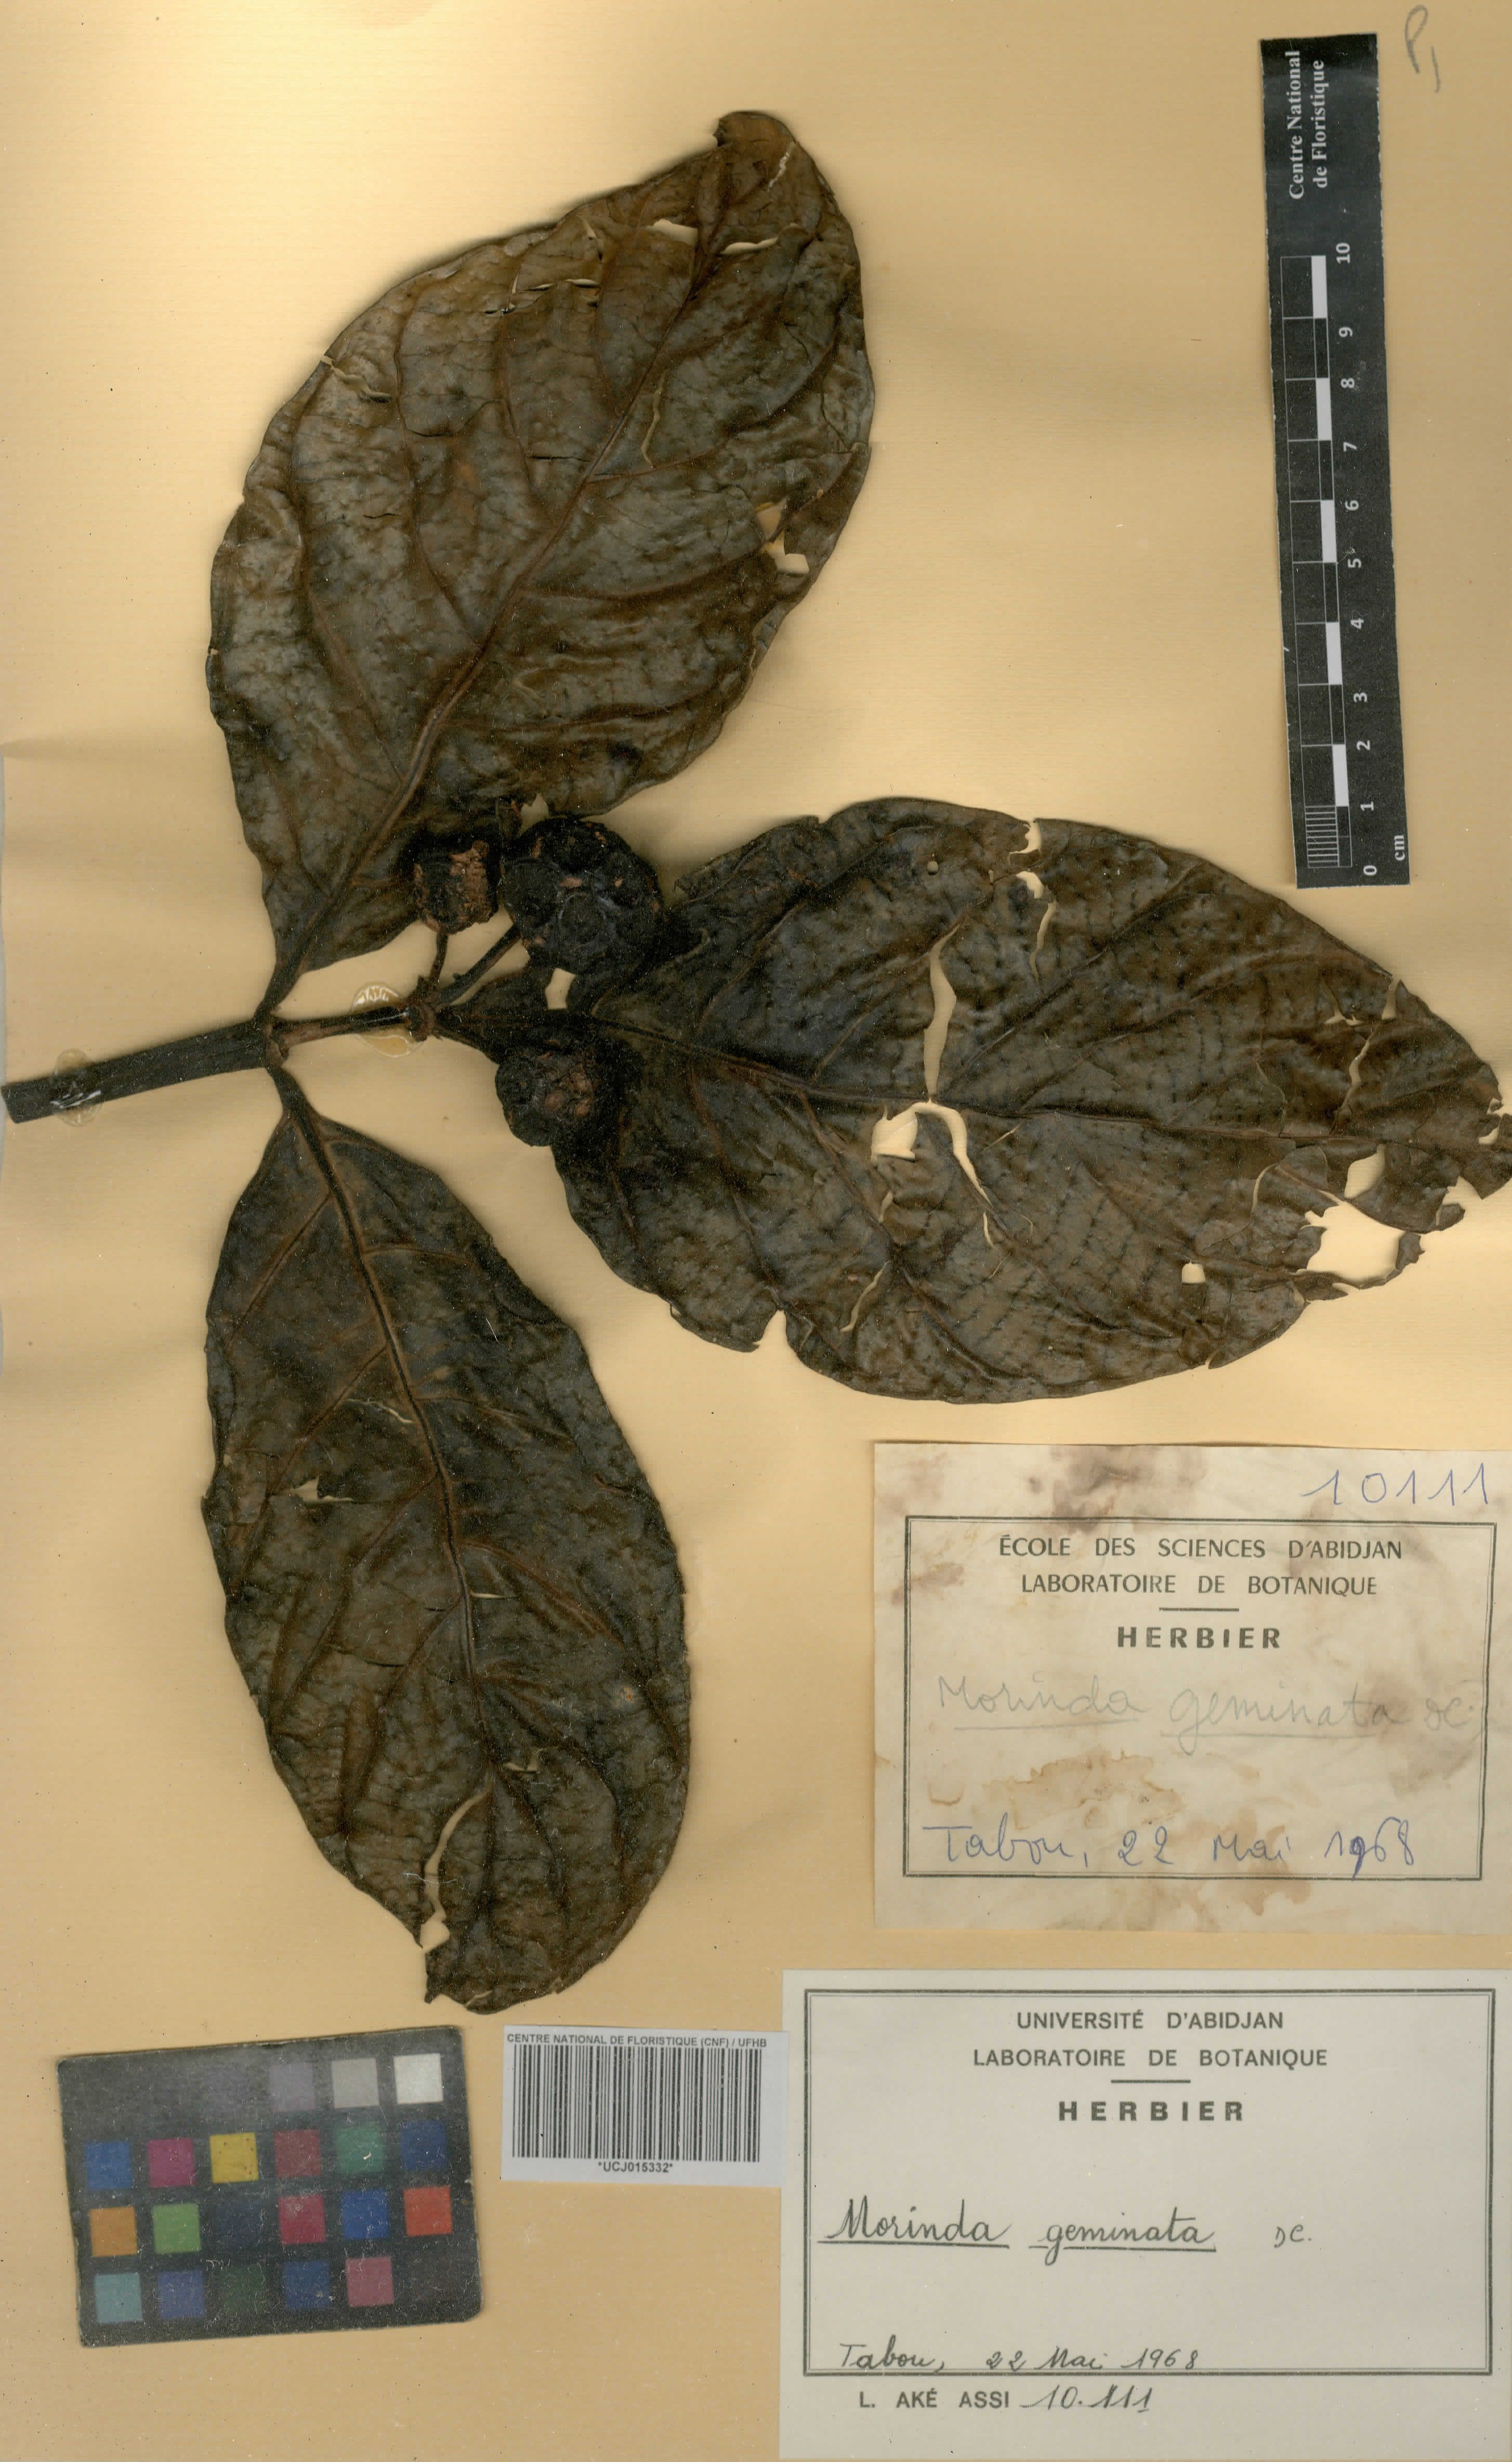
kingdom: Plantae
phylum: Tracheophyta
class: Magnoliopsida
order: Gentianales
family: Rubiaceae
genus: Morinda
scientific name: Morinda chrysorhiza
